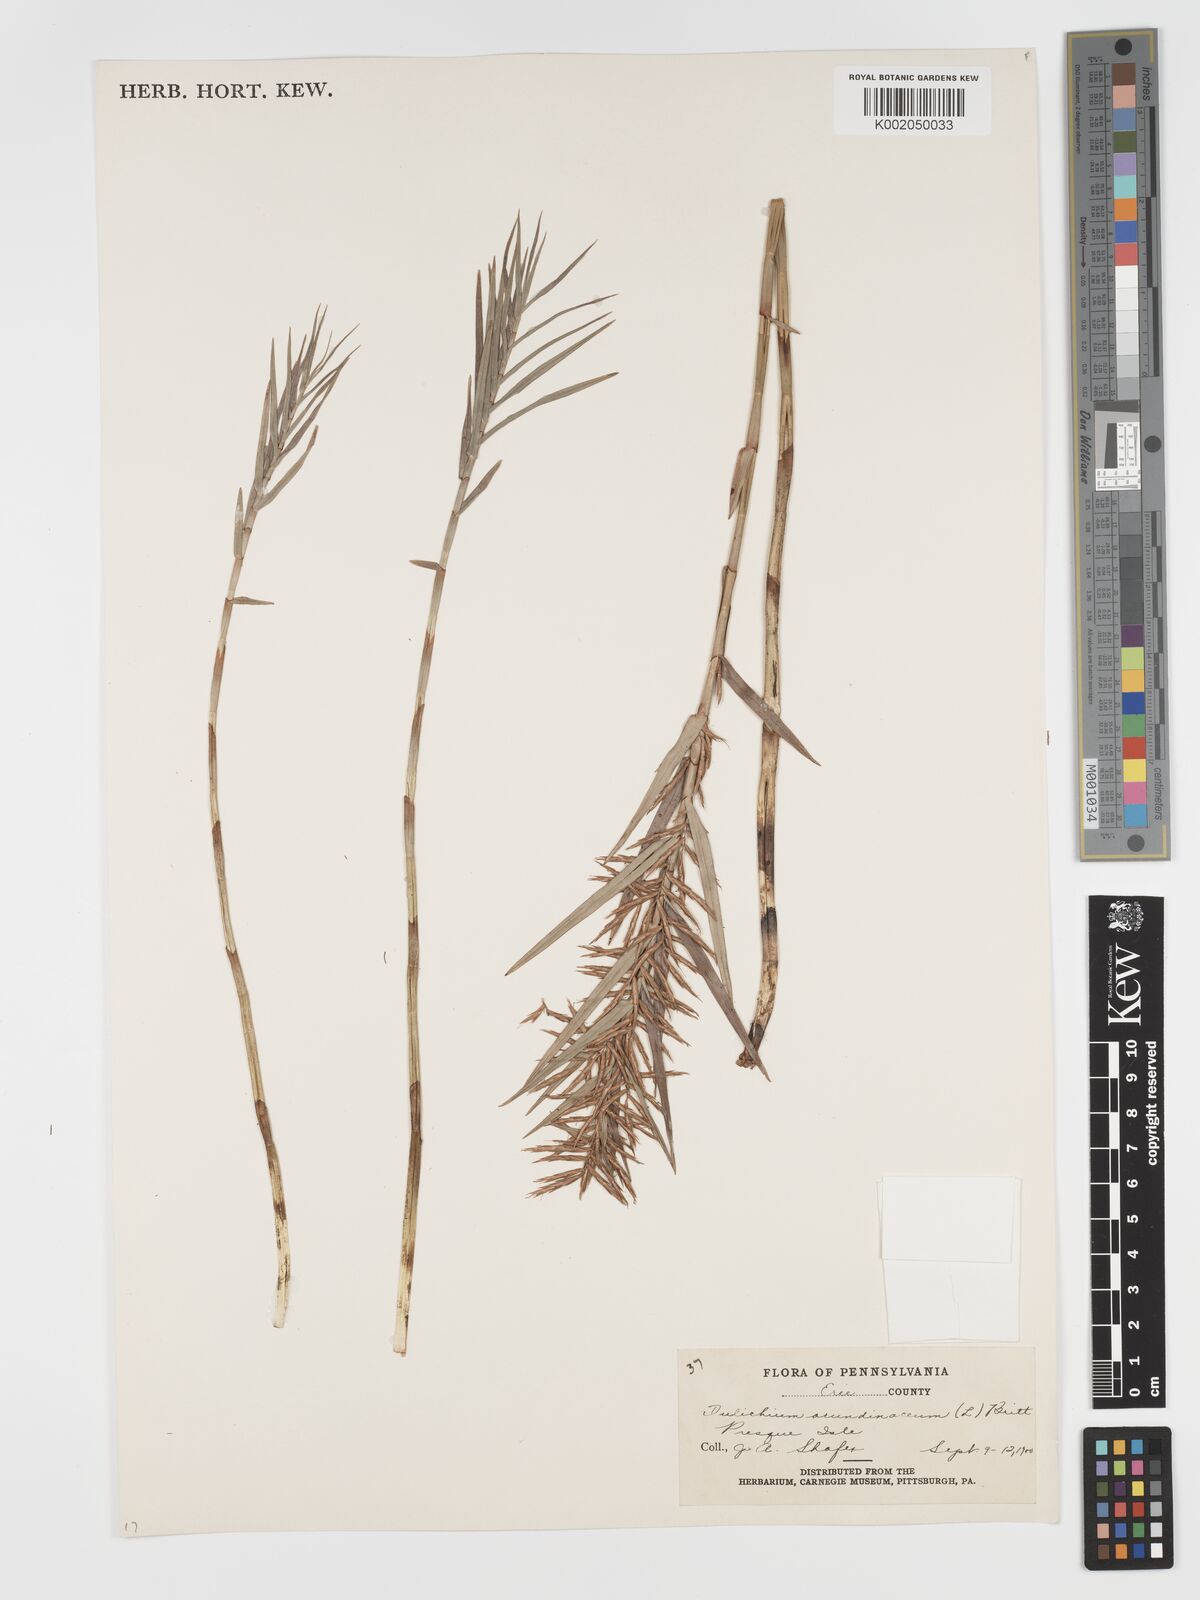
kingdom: Plantae
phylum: Tracheophyta
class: Liliopsida
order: Poales
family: Cyperaceae
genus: Dulichium
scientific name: Dulichium arundinaceum
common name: Three-way sedge
